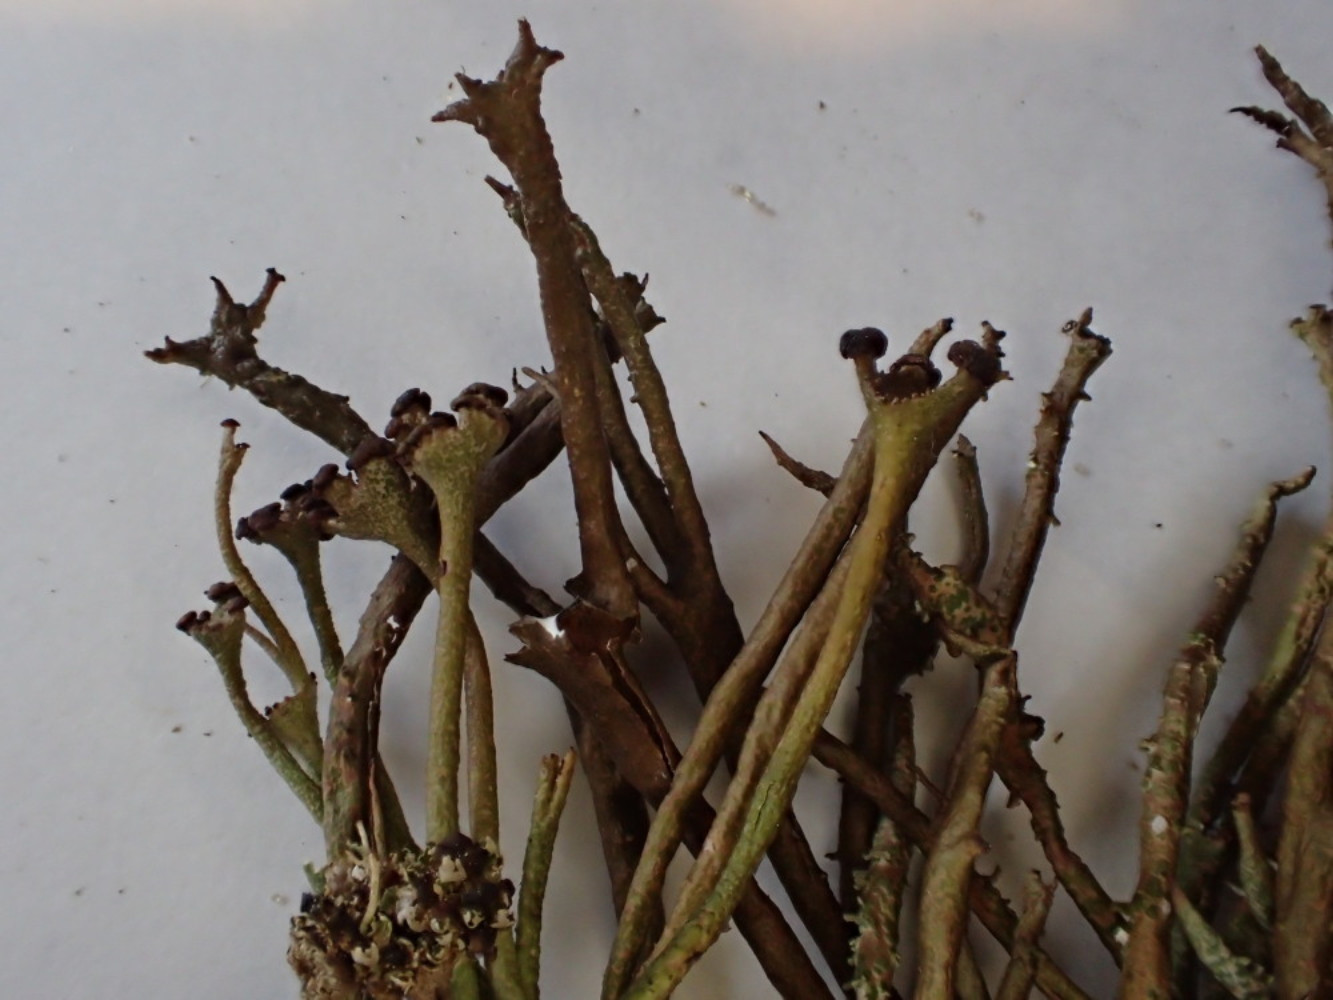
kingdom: Fungi
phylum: Ascomycota
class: Lecanoromycetes
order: Lecanorales
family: Cladoniaceae
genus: Cladonia
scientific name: Cladonia gracilis
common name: slank bægerlav
